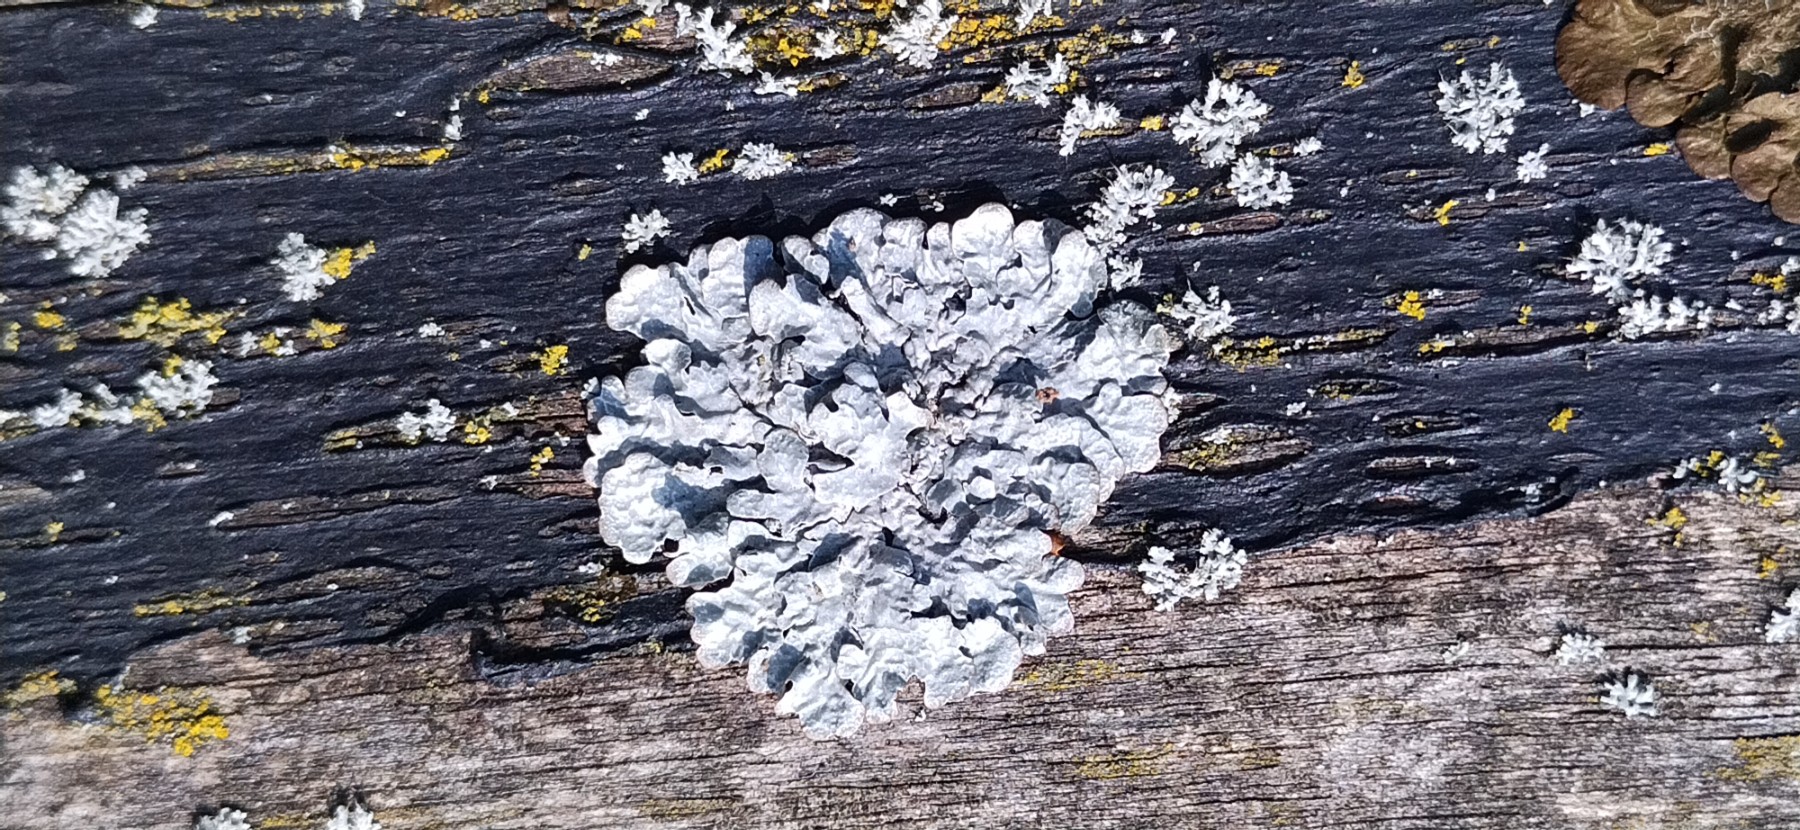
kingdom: Fungi
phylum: Ascomycota
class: Lecanoromycetes
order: Lecanorales
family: Parmeliaceae
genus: Parmelia
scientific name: Parmelia sulcata
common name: rynket skållav
